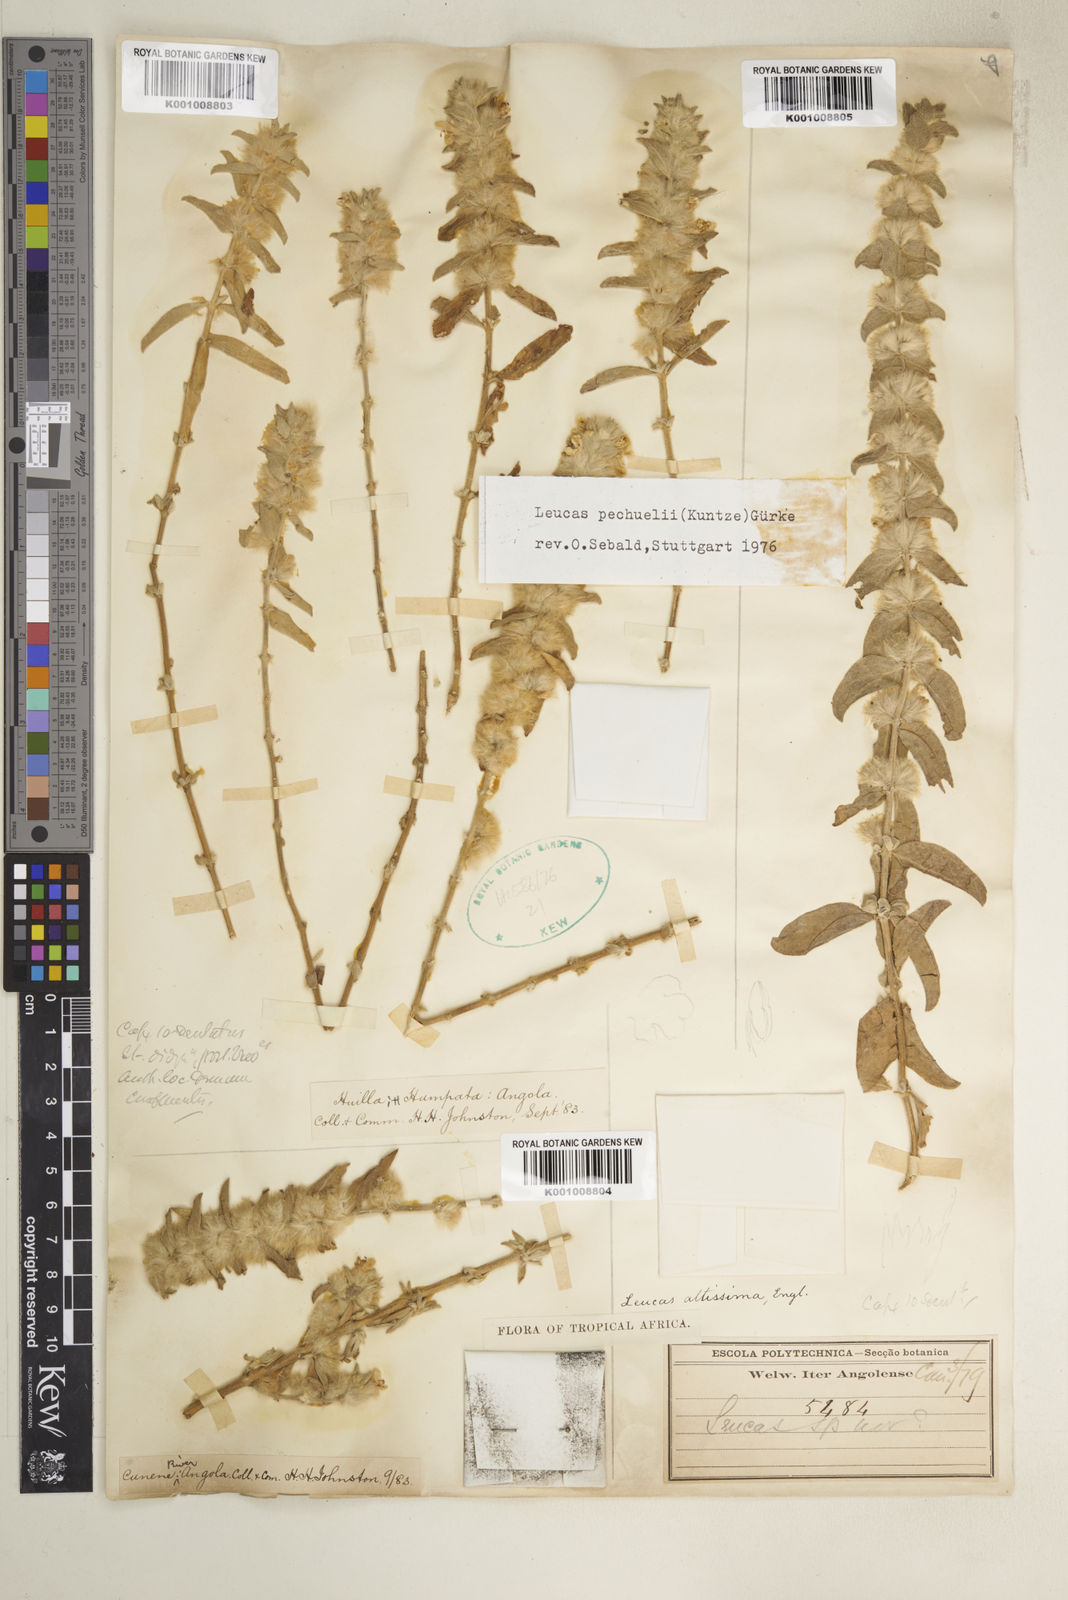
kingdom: Plantae
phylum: Tracheophyta
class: Magnoliopsida
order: Lamiales
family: Lamiaceae
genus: Leucas
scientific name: Leucas pechuelii
